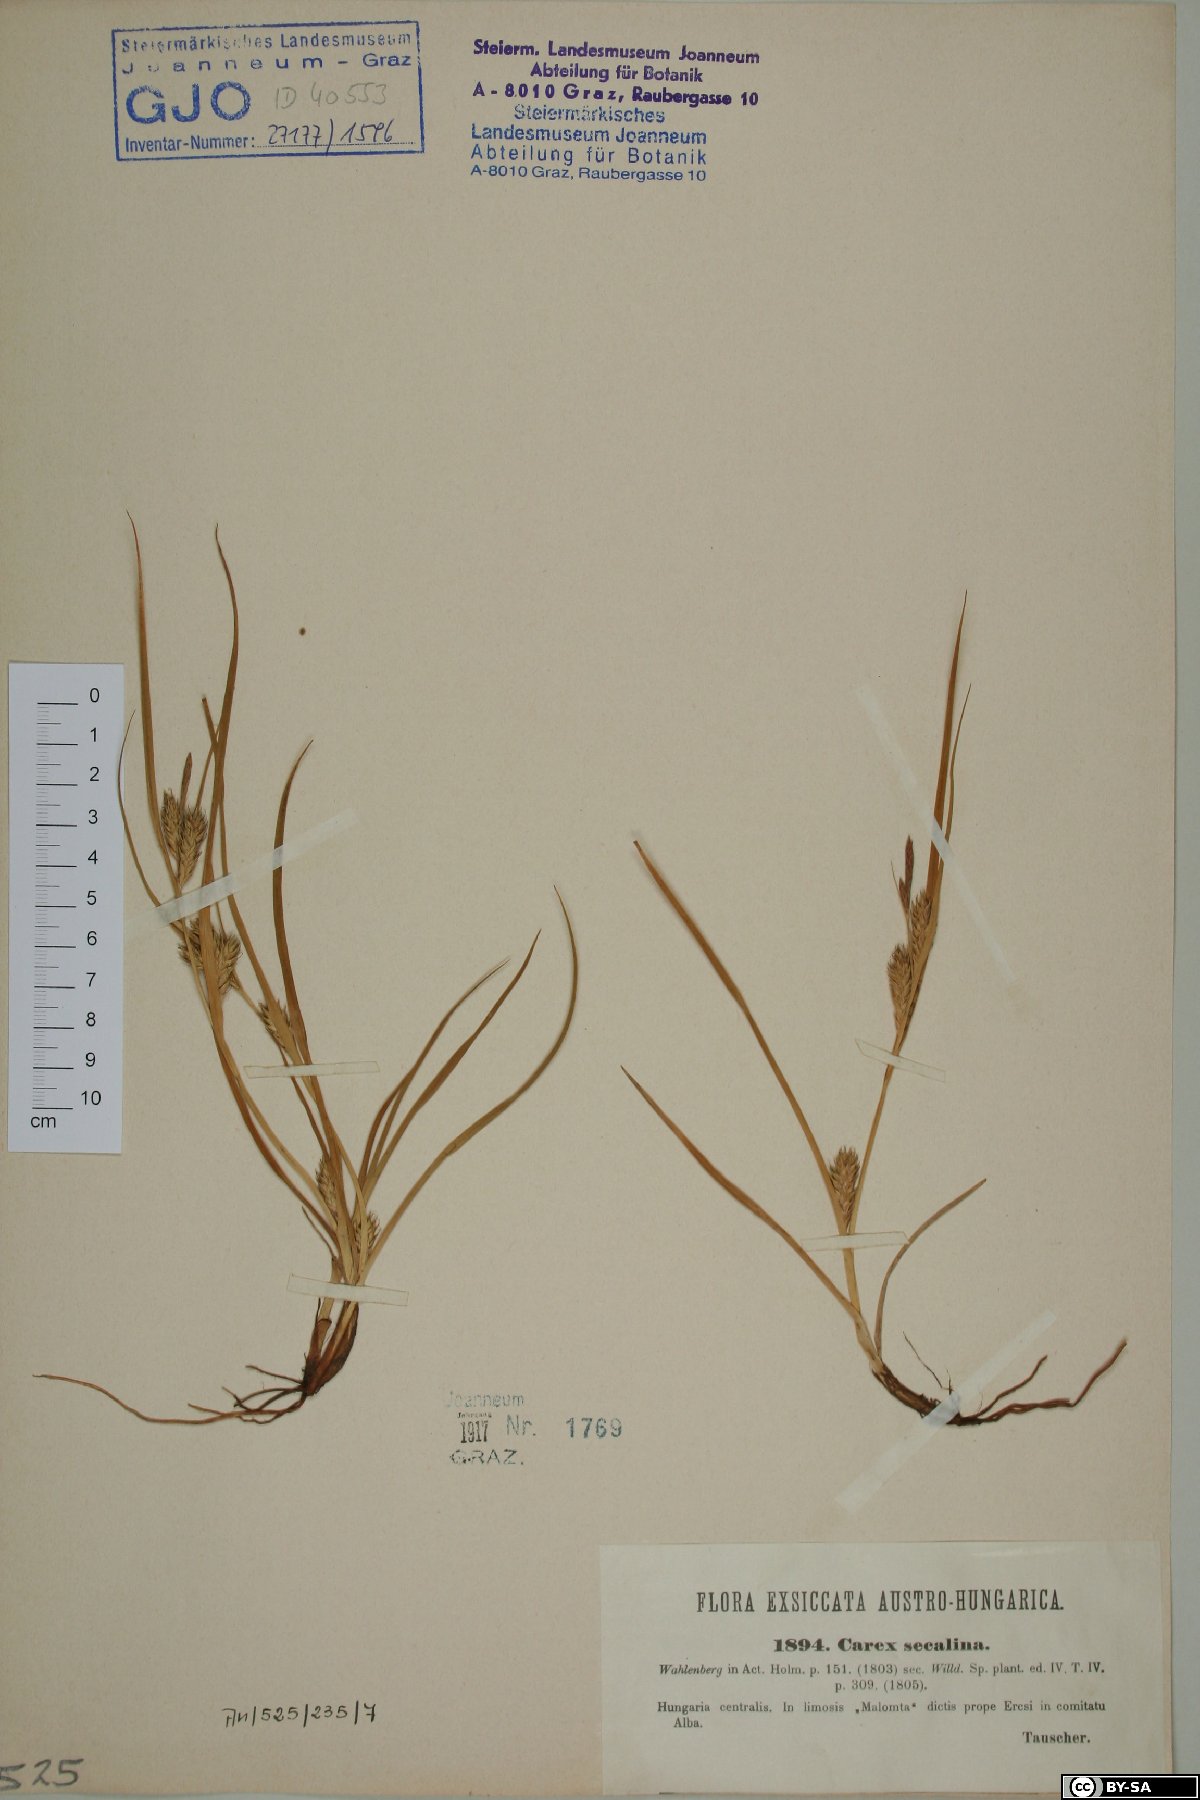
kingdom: Plantae
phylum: Tracheophyta
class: Liliopsida
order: Poales
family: Cyperaceae
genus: Carex
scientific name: Carex secalina
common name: Rye sedge
